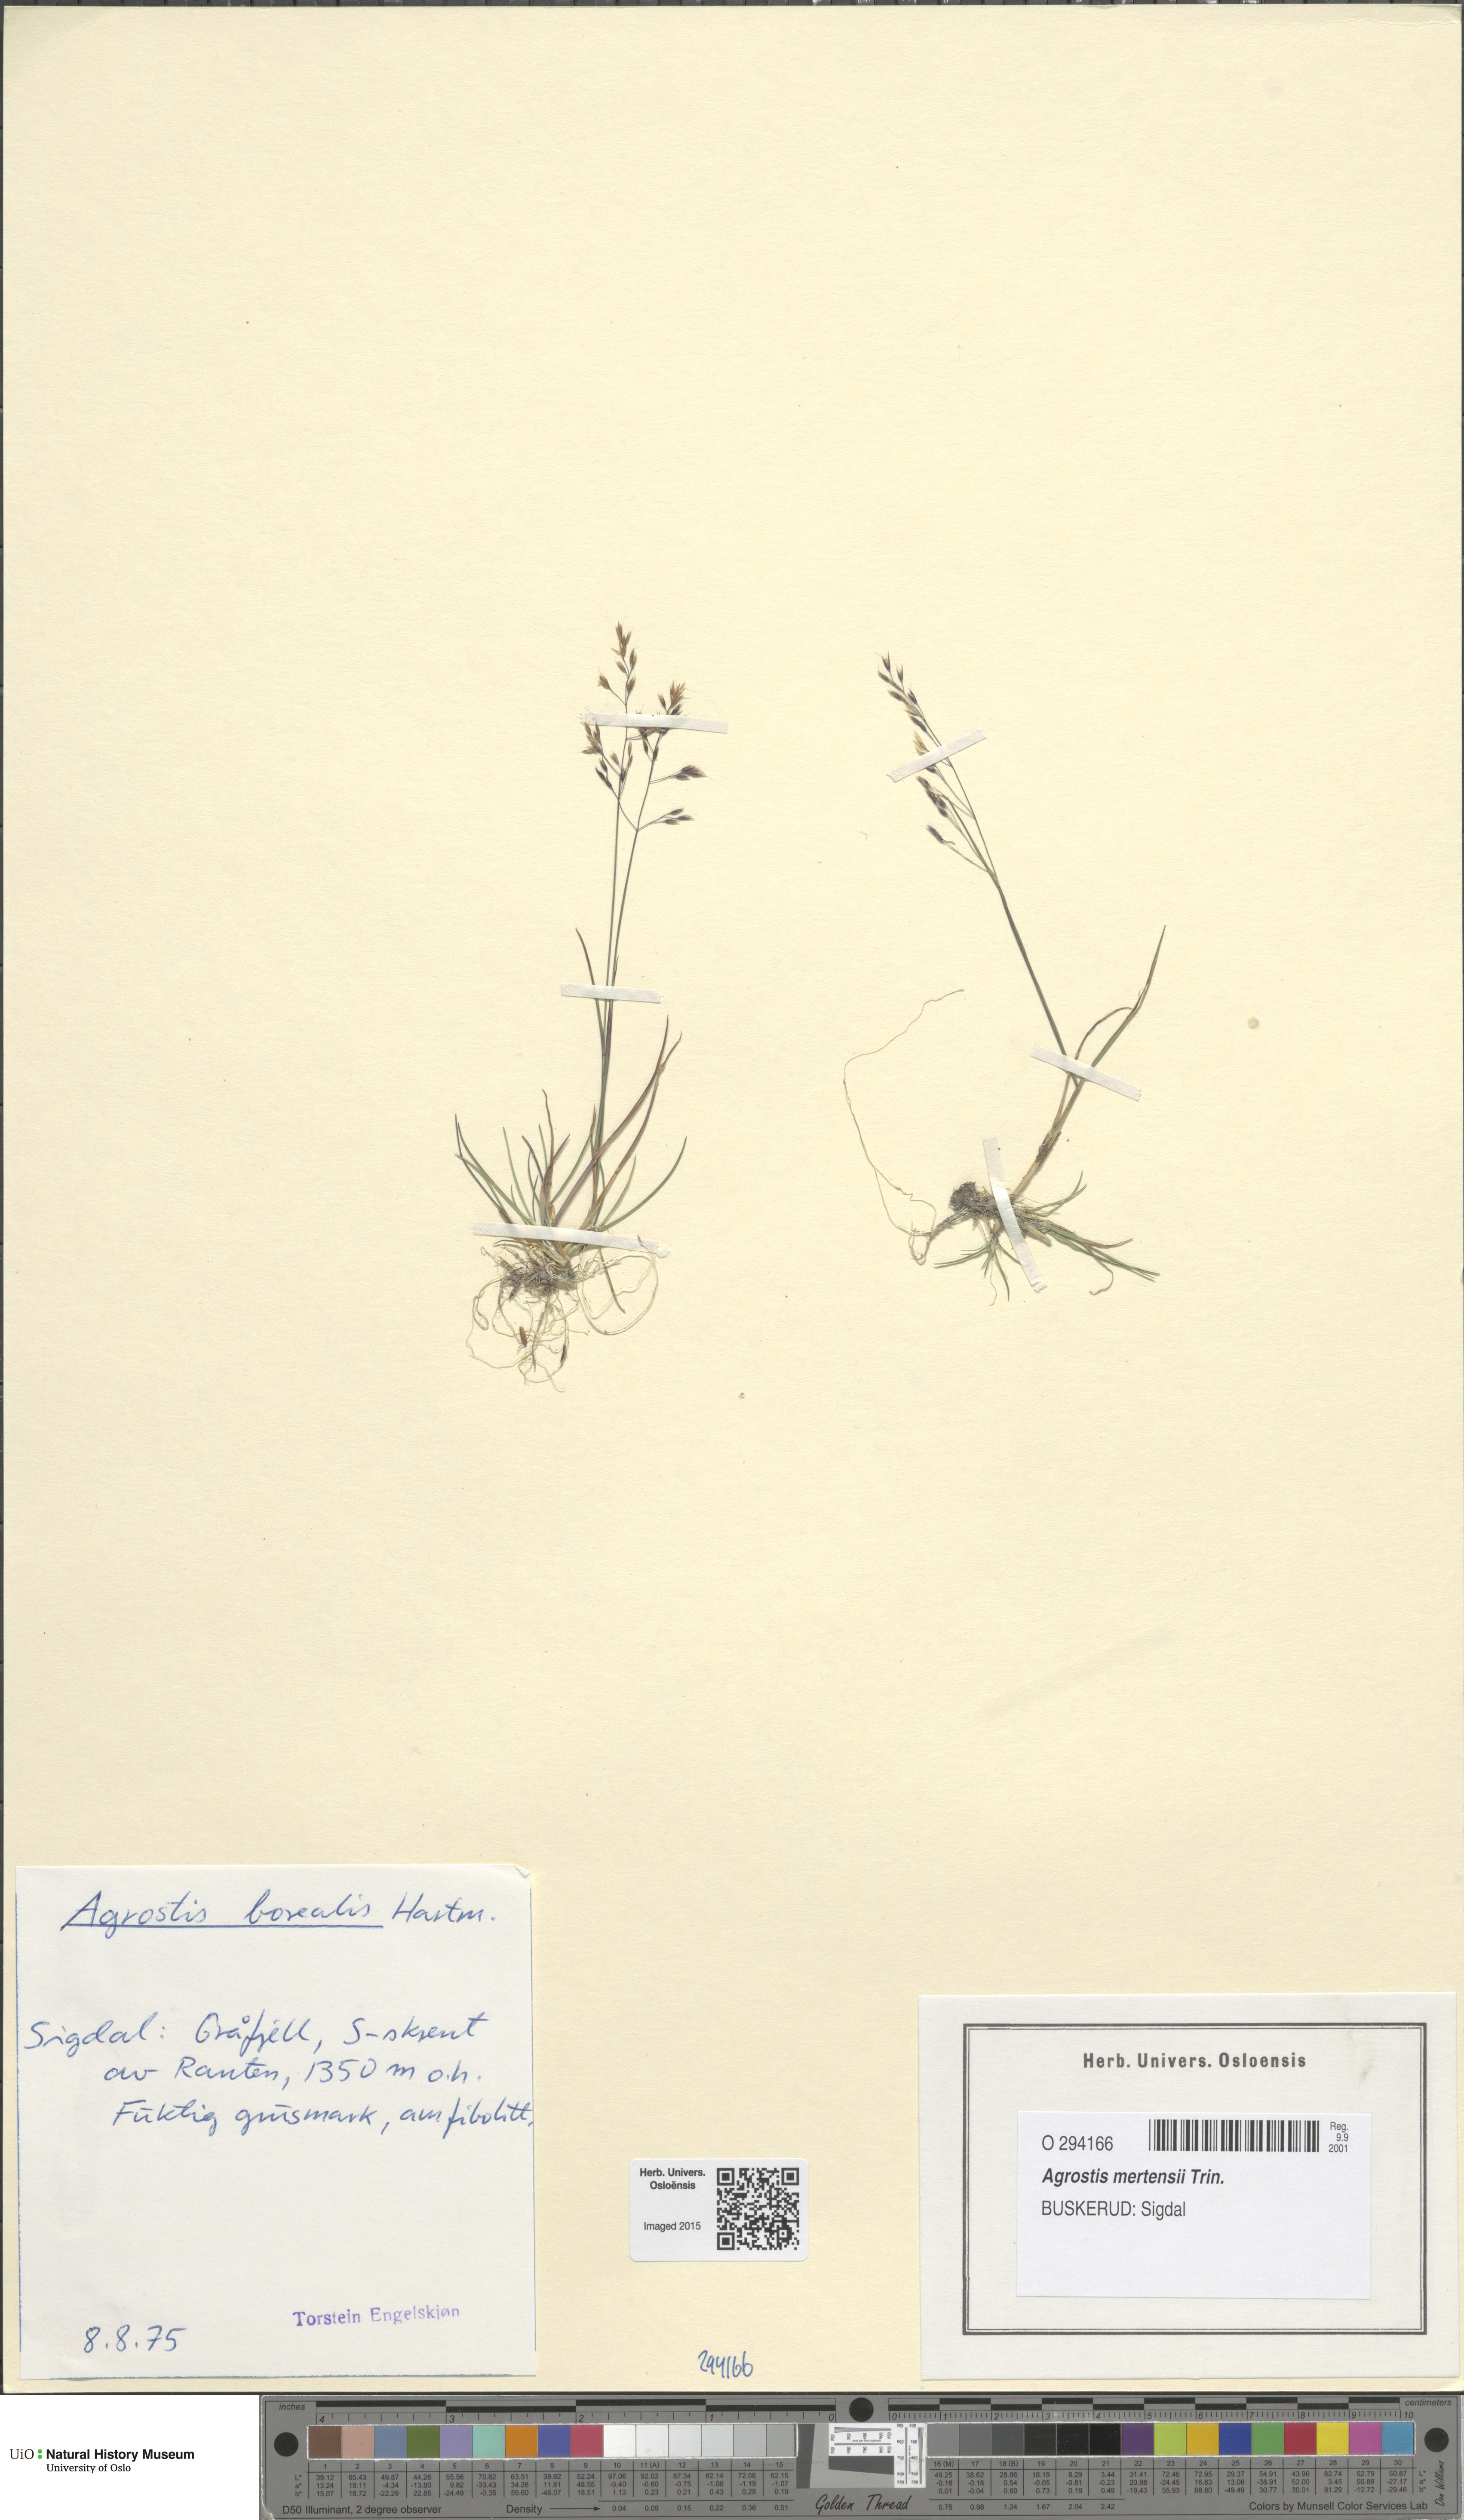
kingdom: Plantae
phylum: Tracheophyta
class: Liliopsida
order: Poales
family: Poaceae
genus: Agrostis
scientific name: Agrostis mertensii
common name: Northern bent
